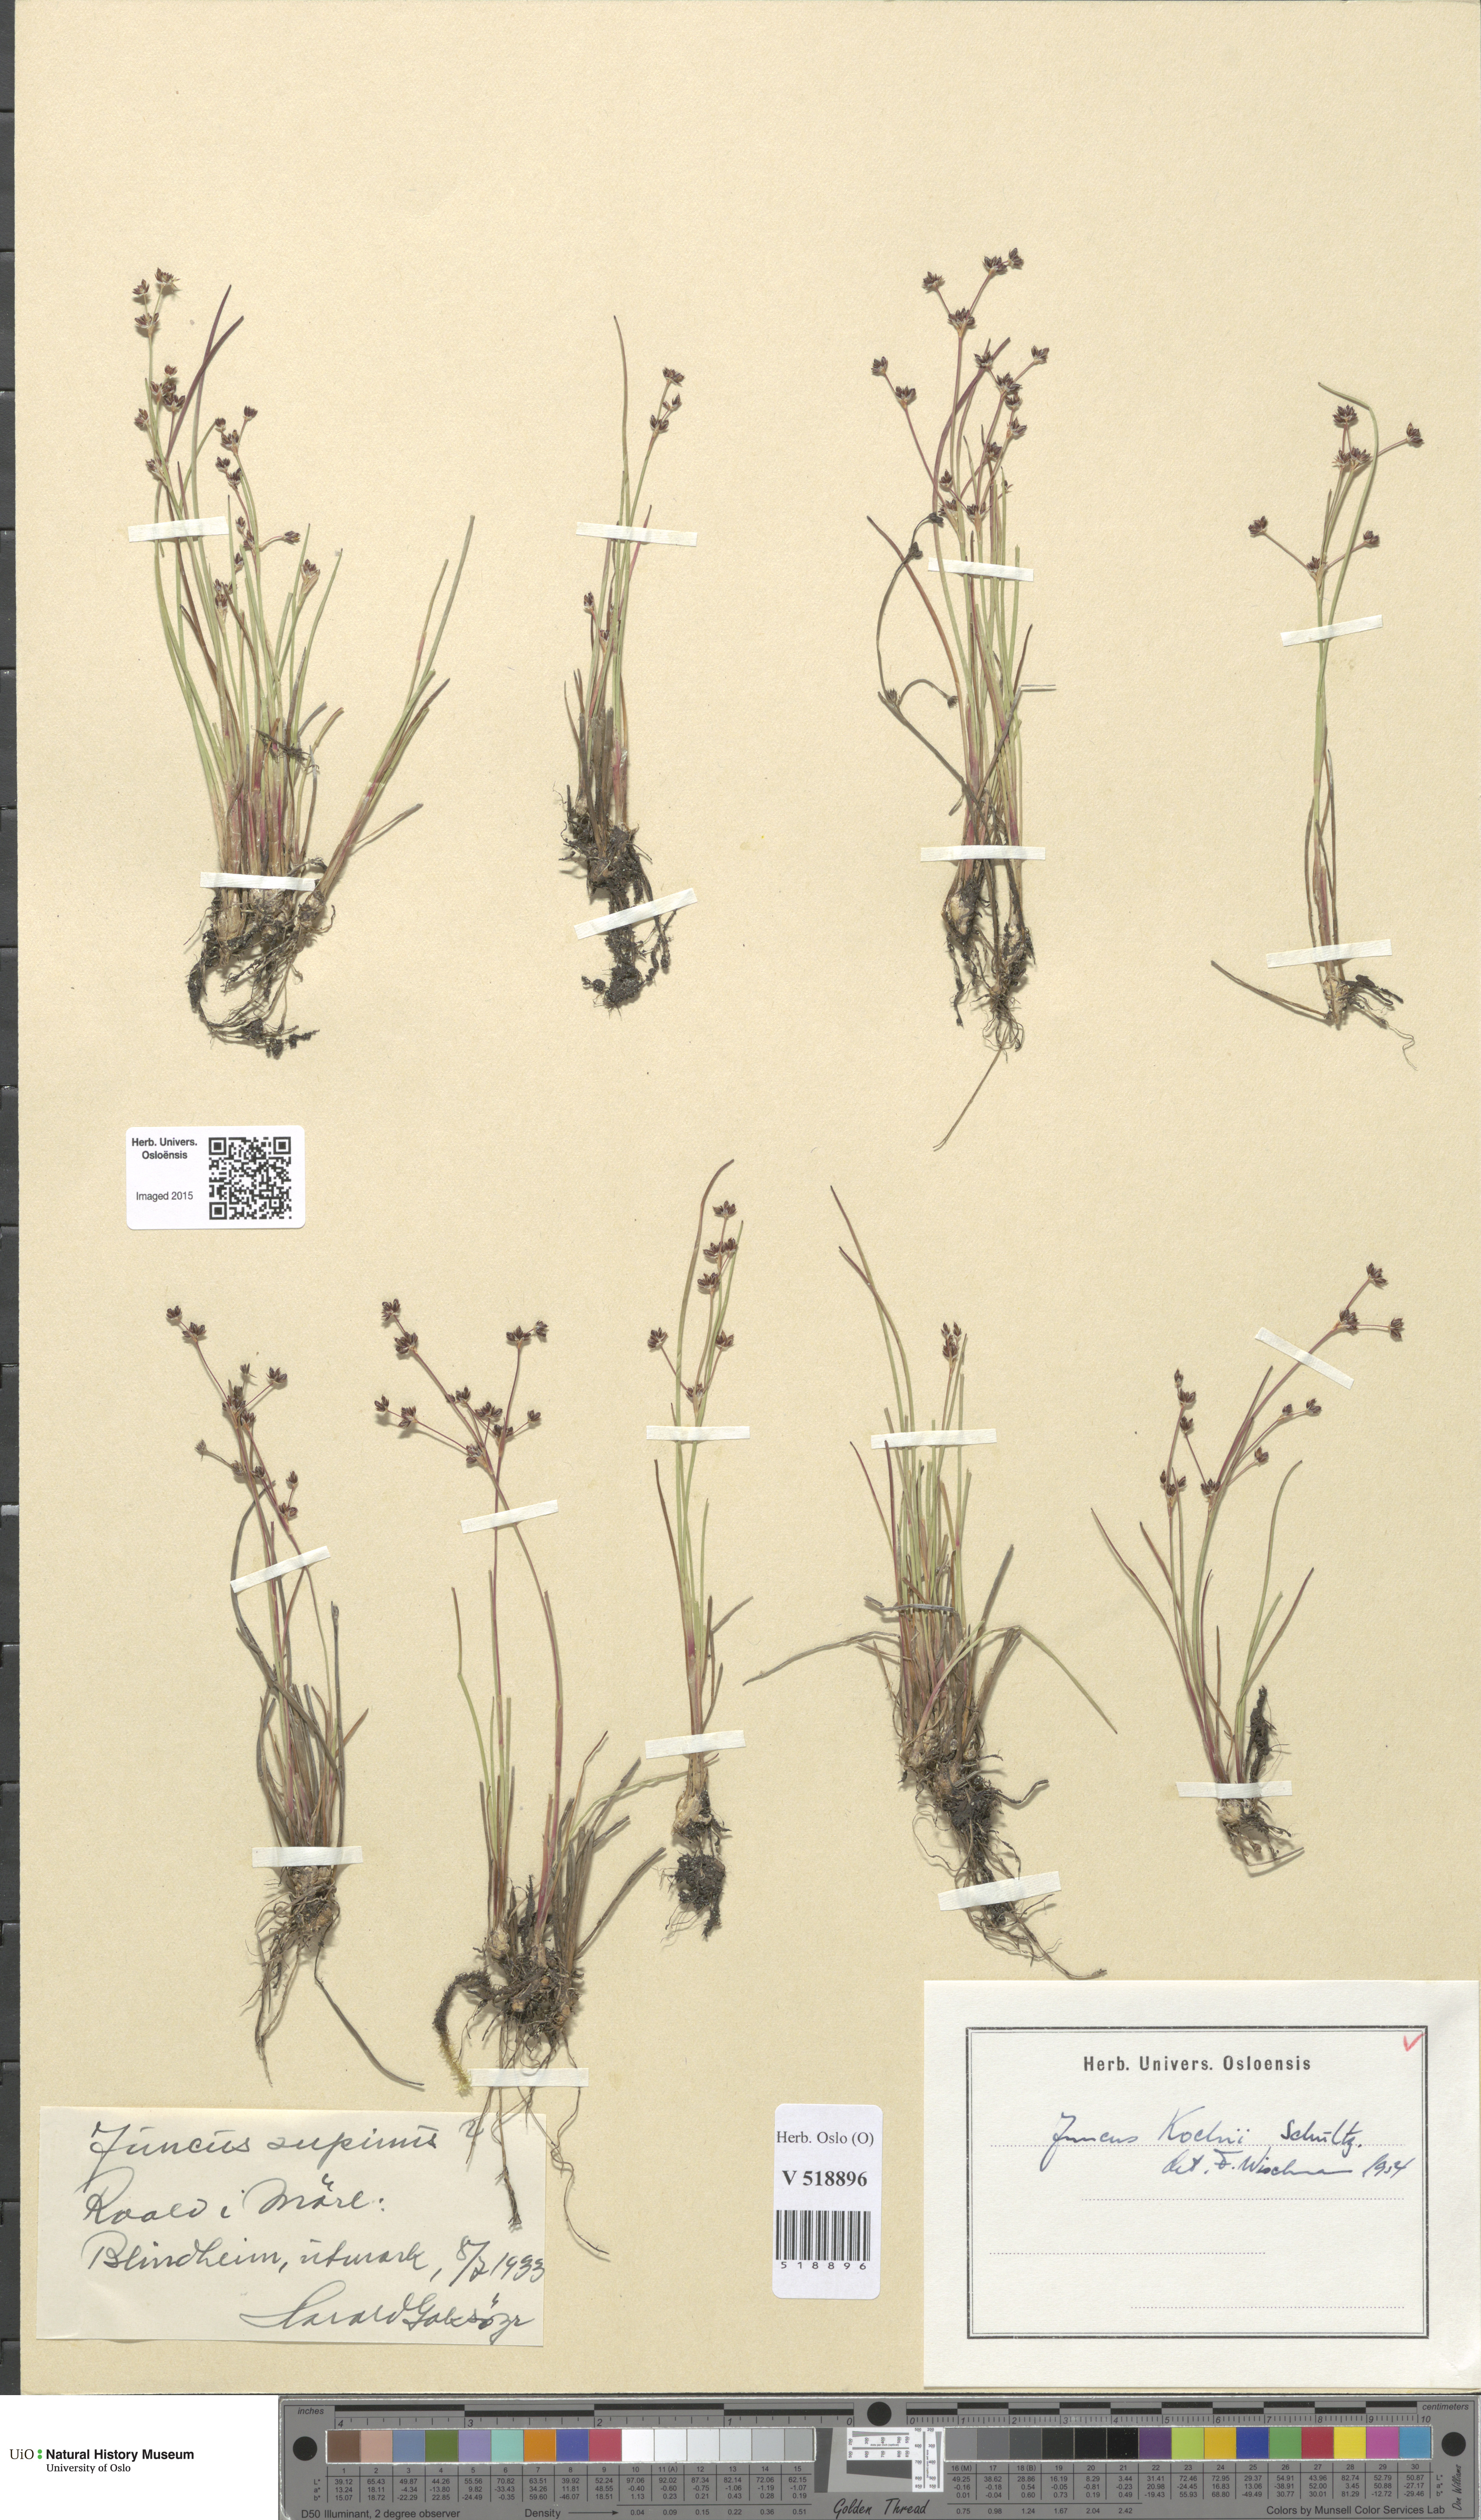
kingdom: Plantae
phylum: Tracheophyta
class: Liliopsida
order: Poales
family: Juncaceae
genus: Juncus
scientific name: Juncus bulbosus
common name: Bulbous rush
